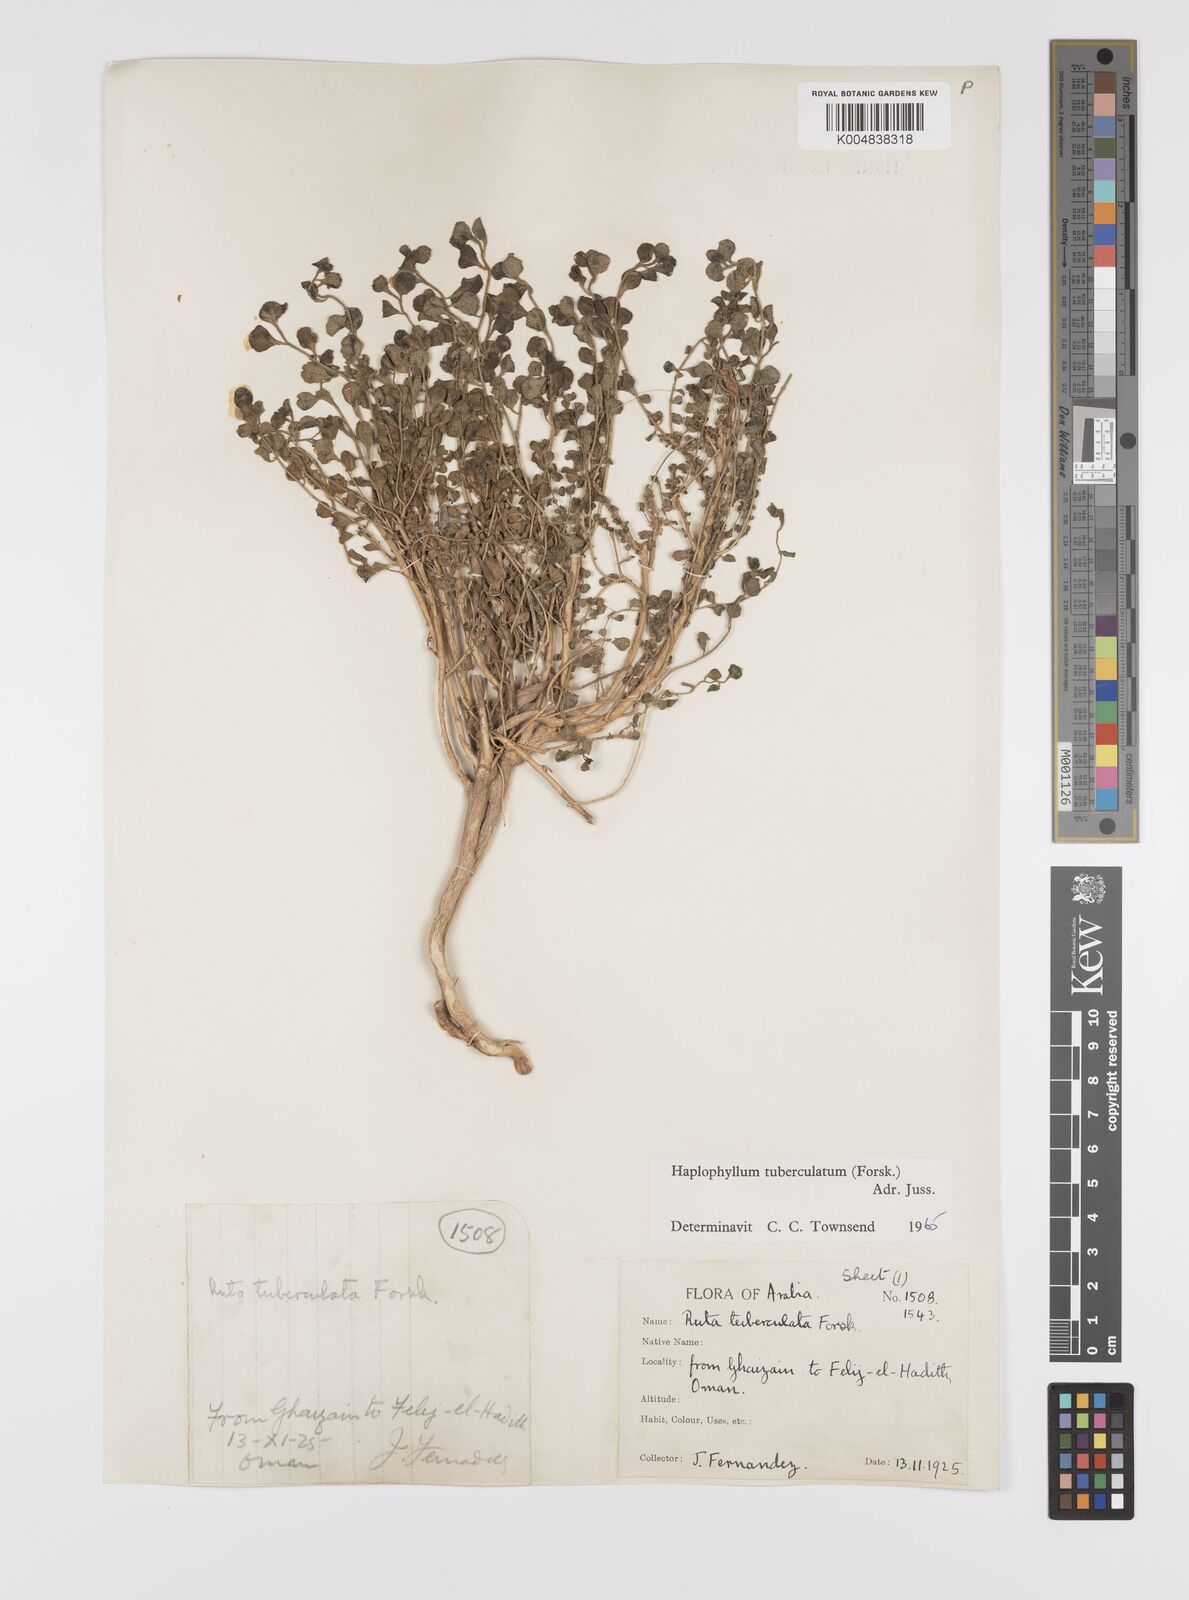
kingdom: Plantae
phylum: Tracheophyta
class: Magnoliopsida
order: Sapindales
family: Rutaceae
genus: Haplophyllum
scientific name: Haplophyllum tuberculatum
